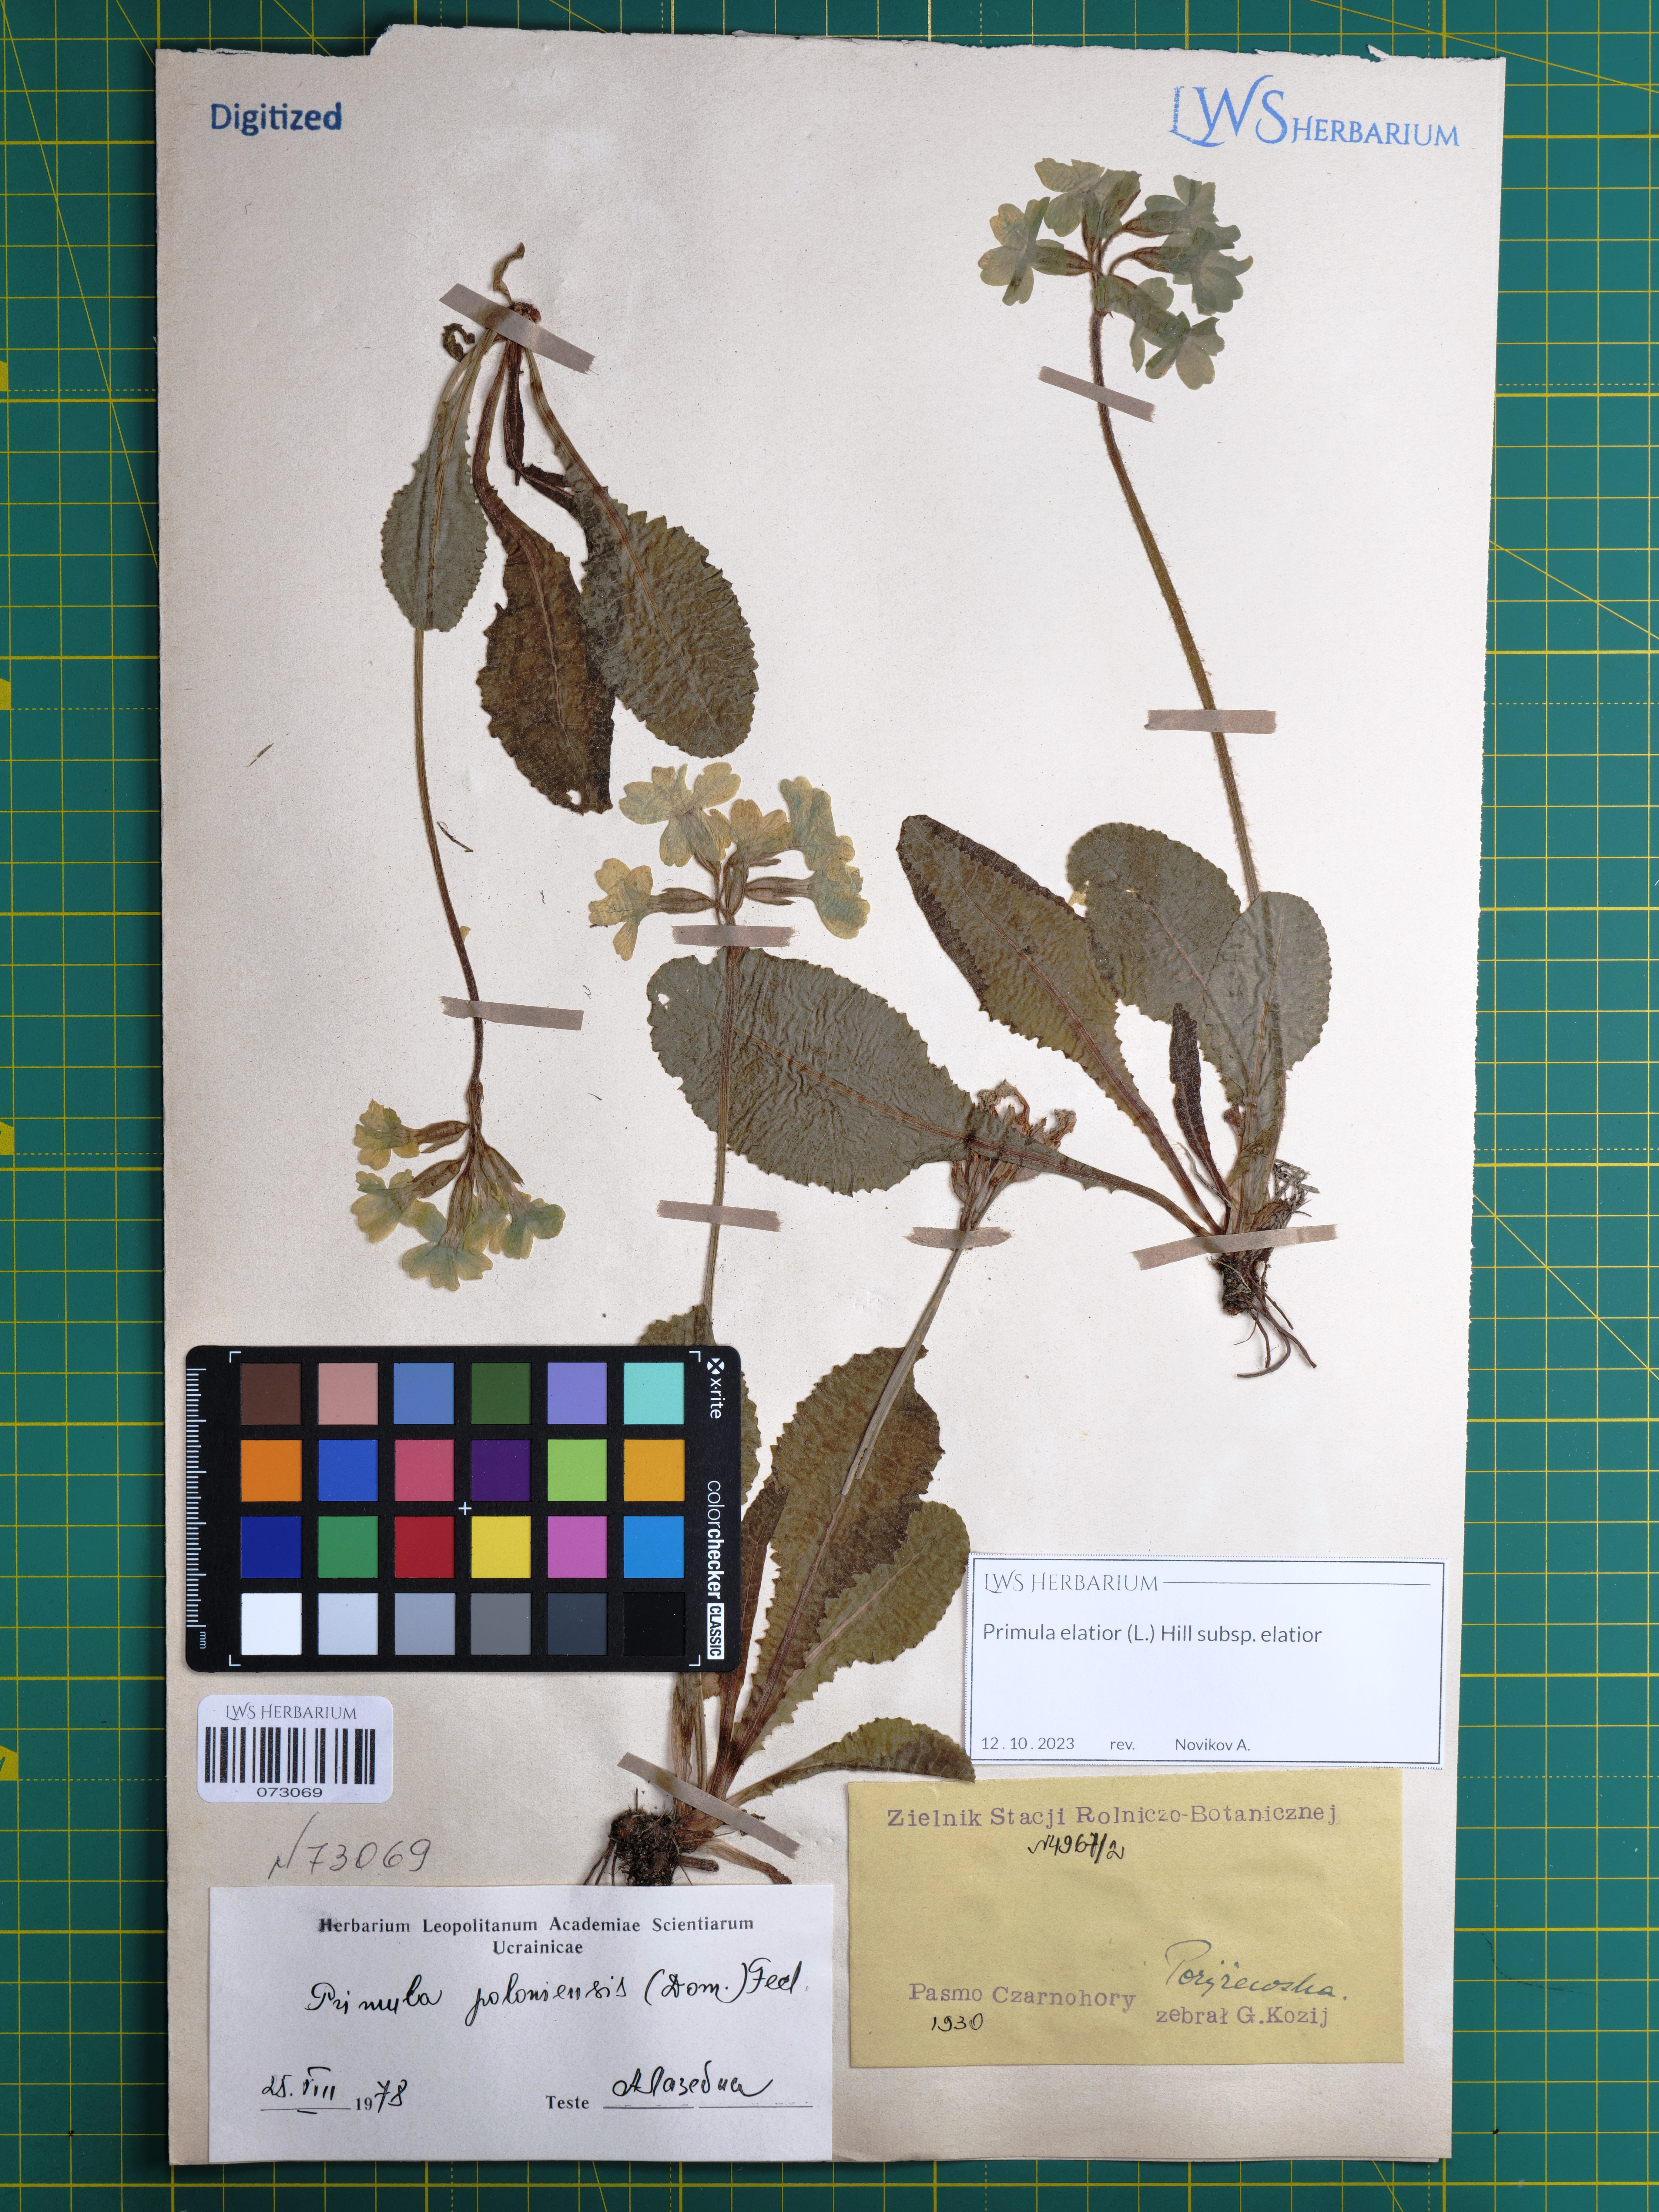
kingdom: Plantae
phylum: Tracheophyta
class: Magnoliopsida
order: Ericales
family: Primulaceae
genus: Primula
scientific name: Primula elatior
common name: Oxlip
